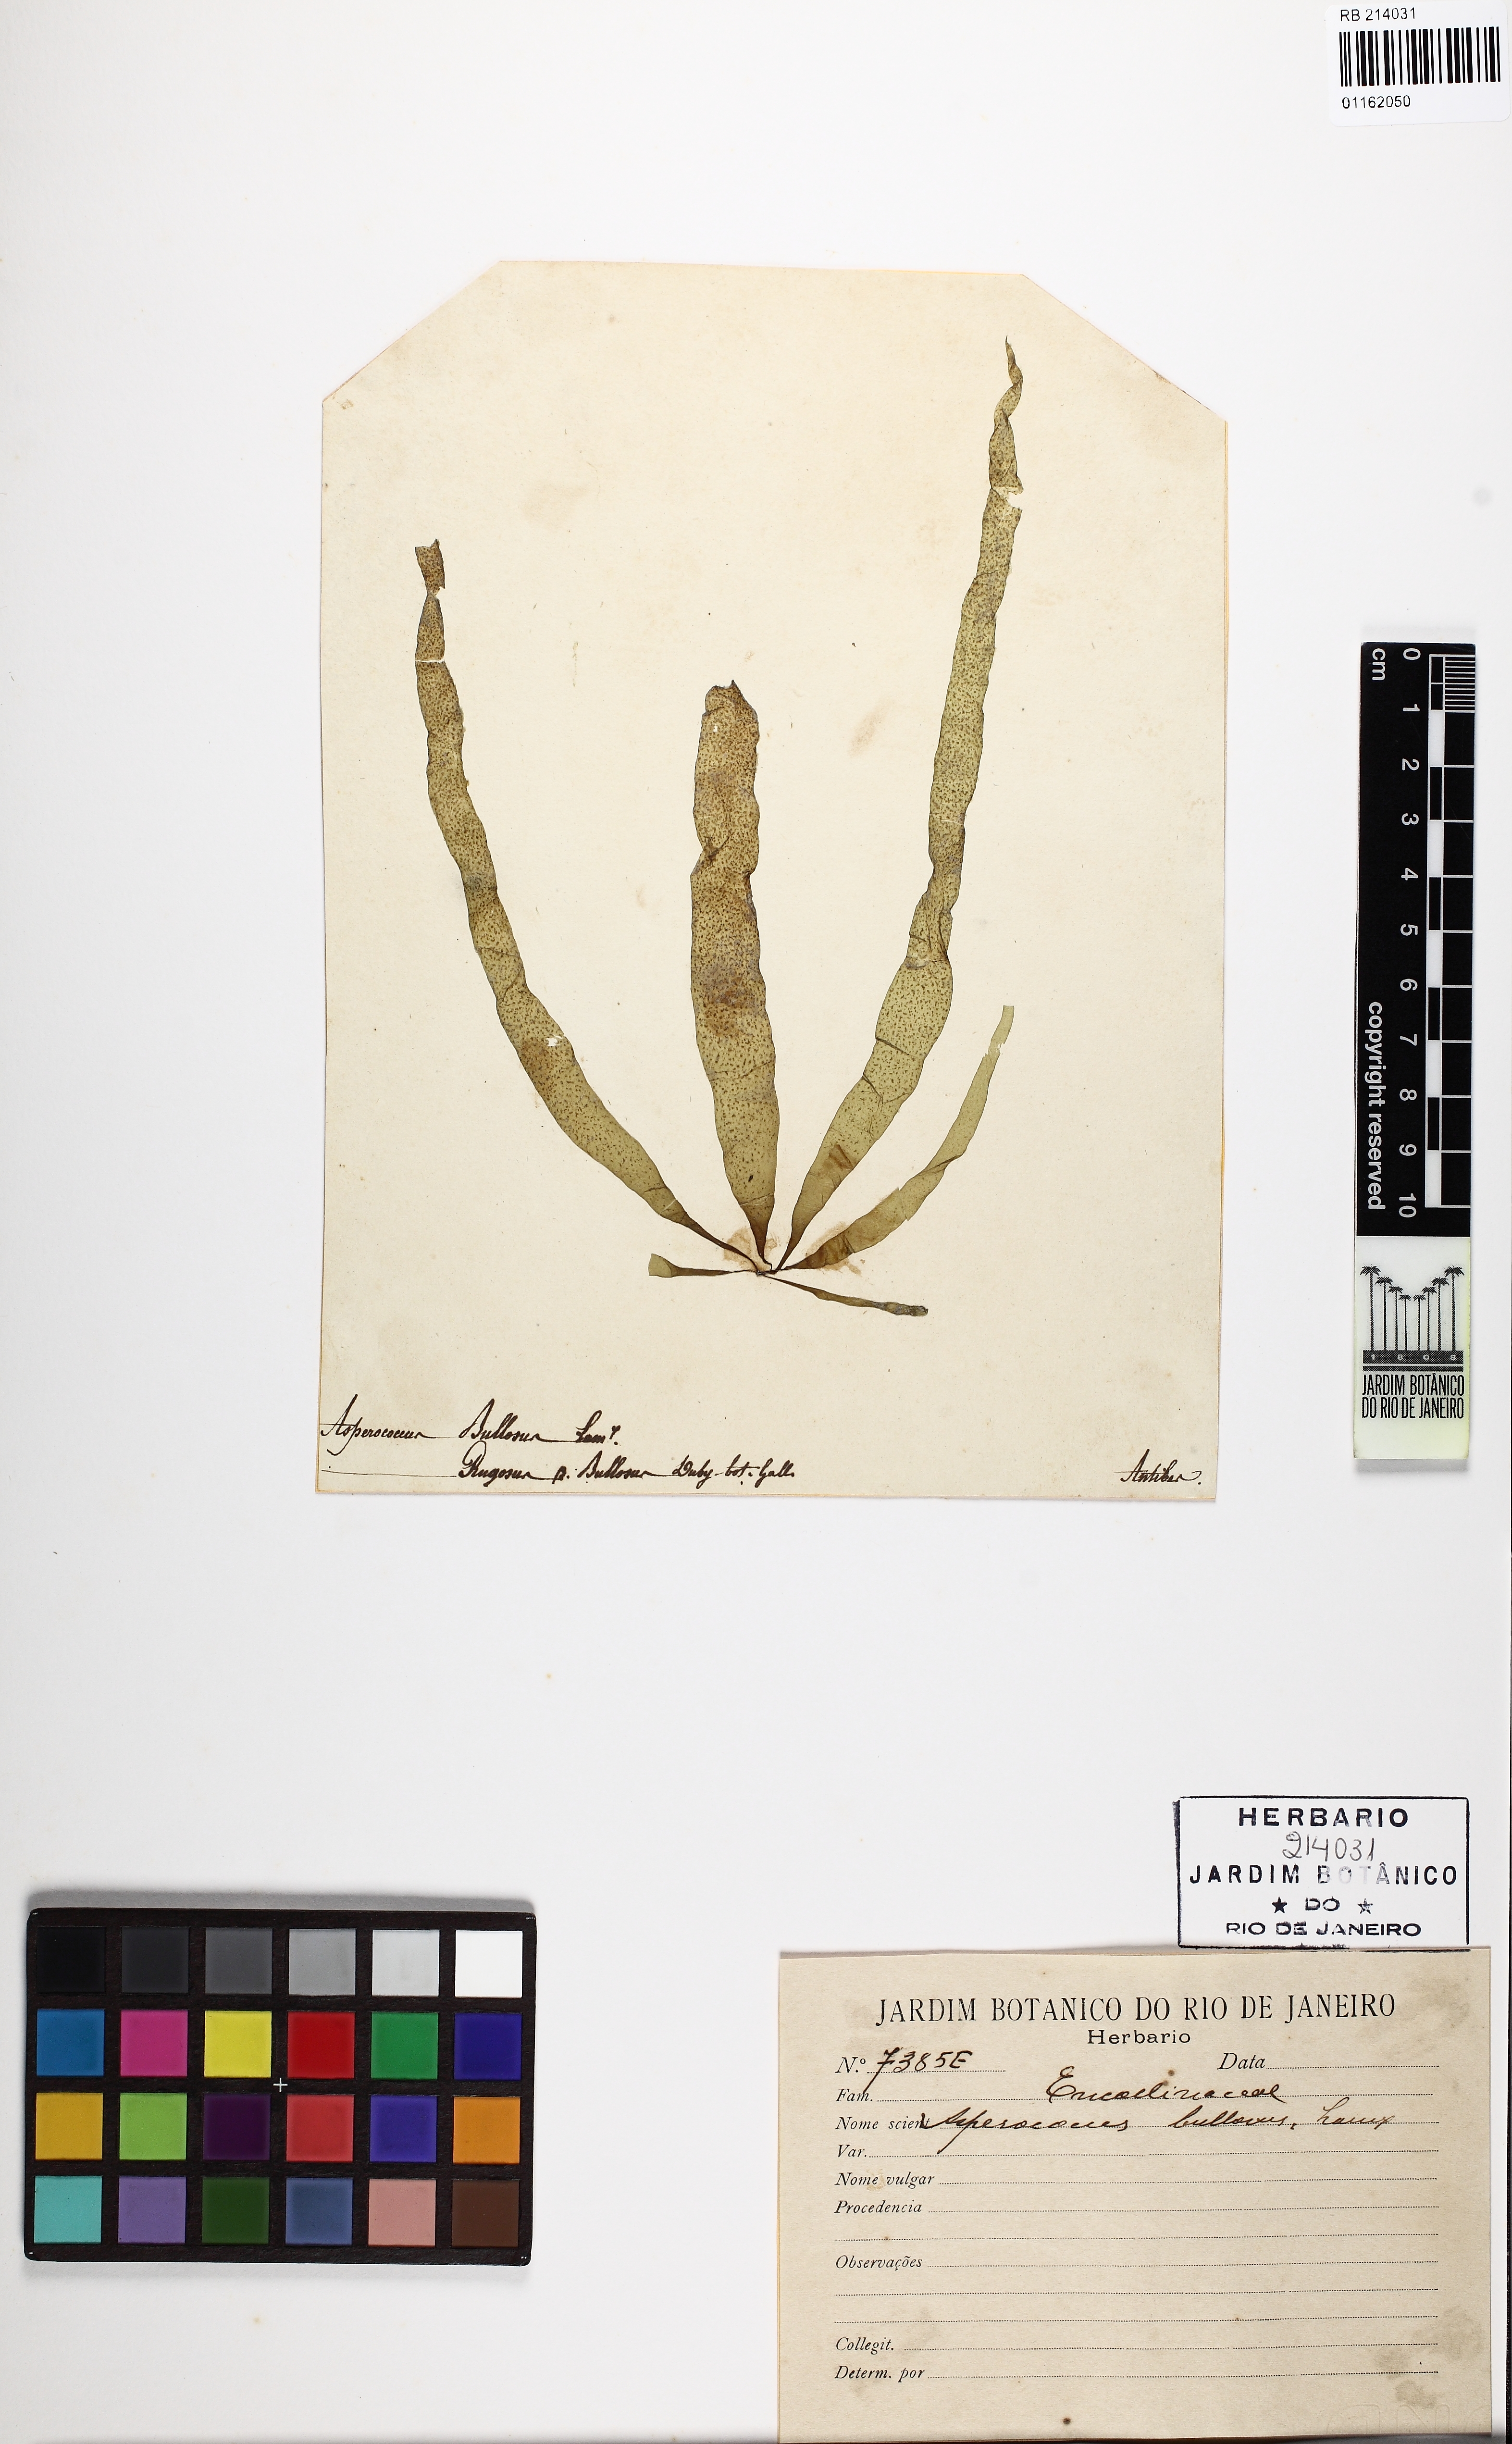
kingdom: Chromista
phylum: Ochrophyta
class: Phaeophyceae
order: Ectocarpales
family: Chordariaceae
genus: Asperococcus
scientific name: Asperococcus bullosus
